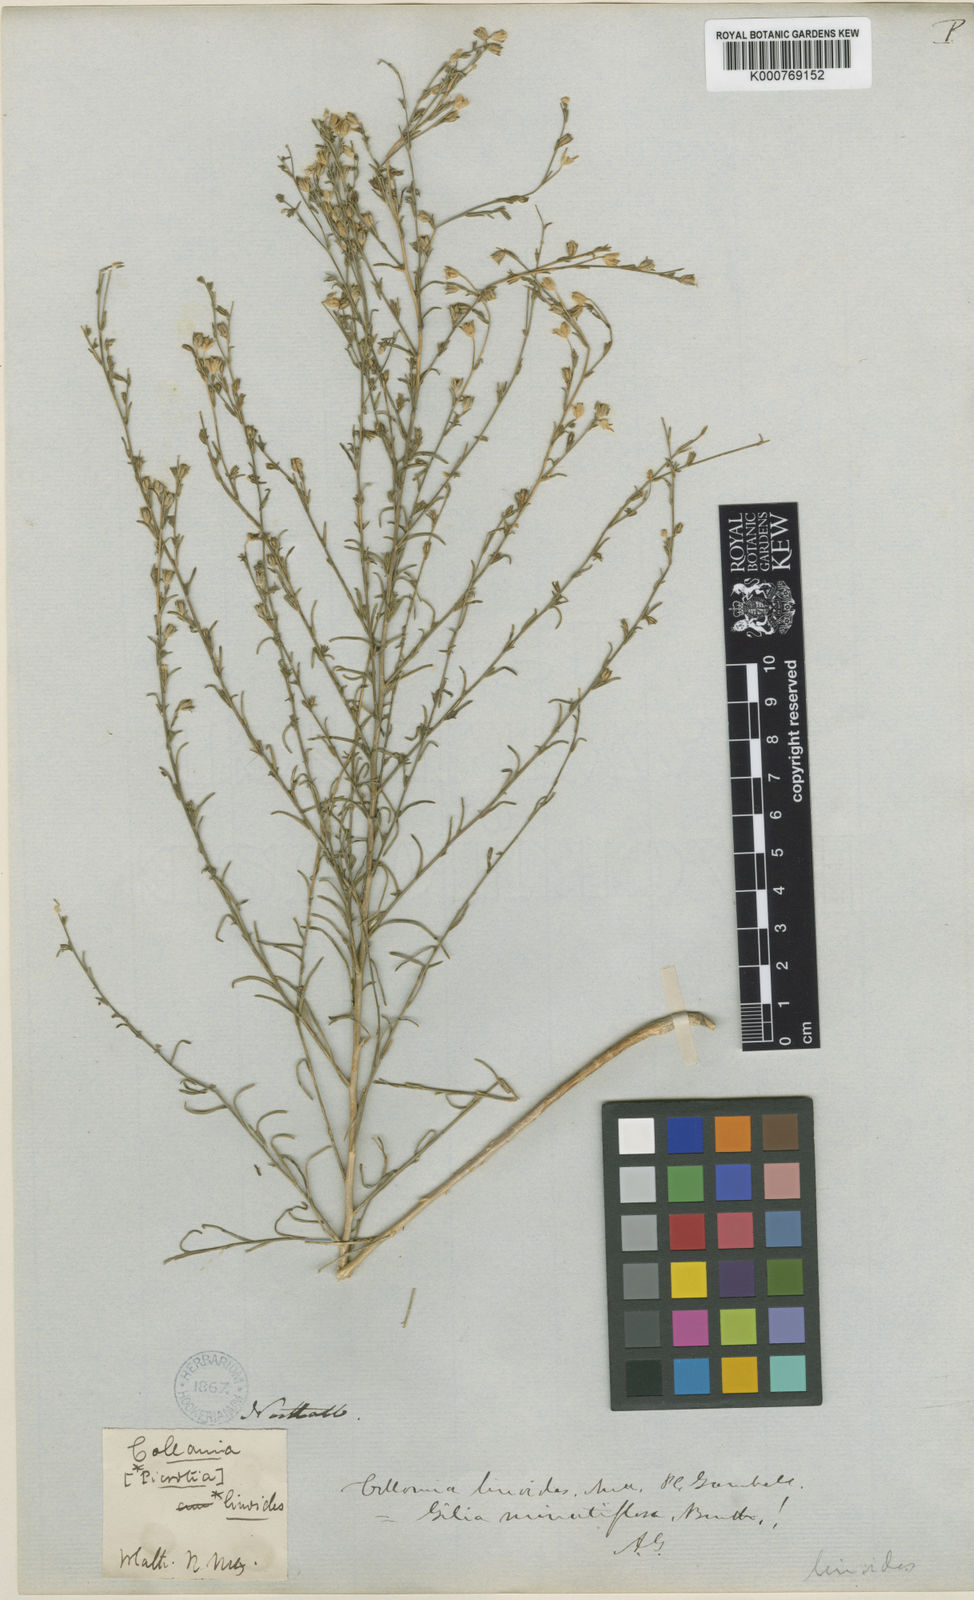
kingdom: Plantae
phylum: Tracheophyta
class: Magnoliopsida
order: Ericales
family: Polemoniaceae
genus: Microgilia
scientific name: Microgilia minutiflora
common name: Small-flowered gilia
